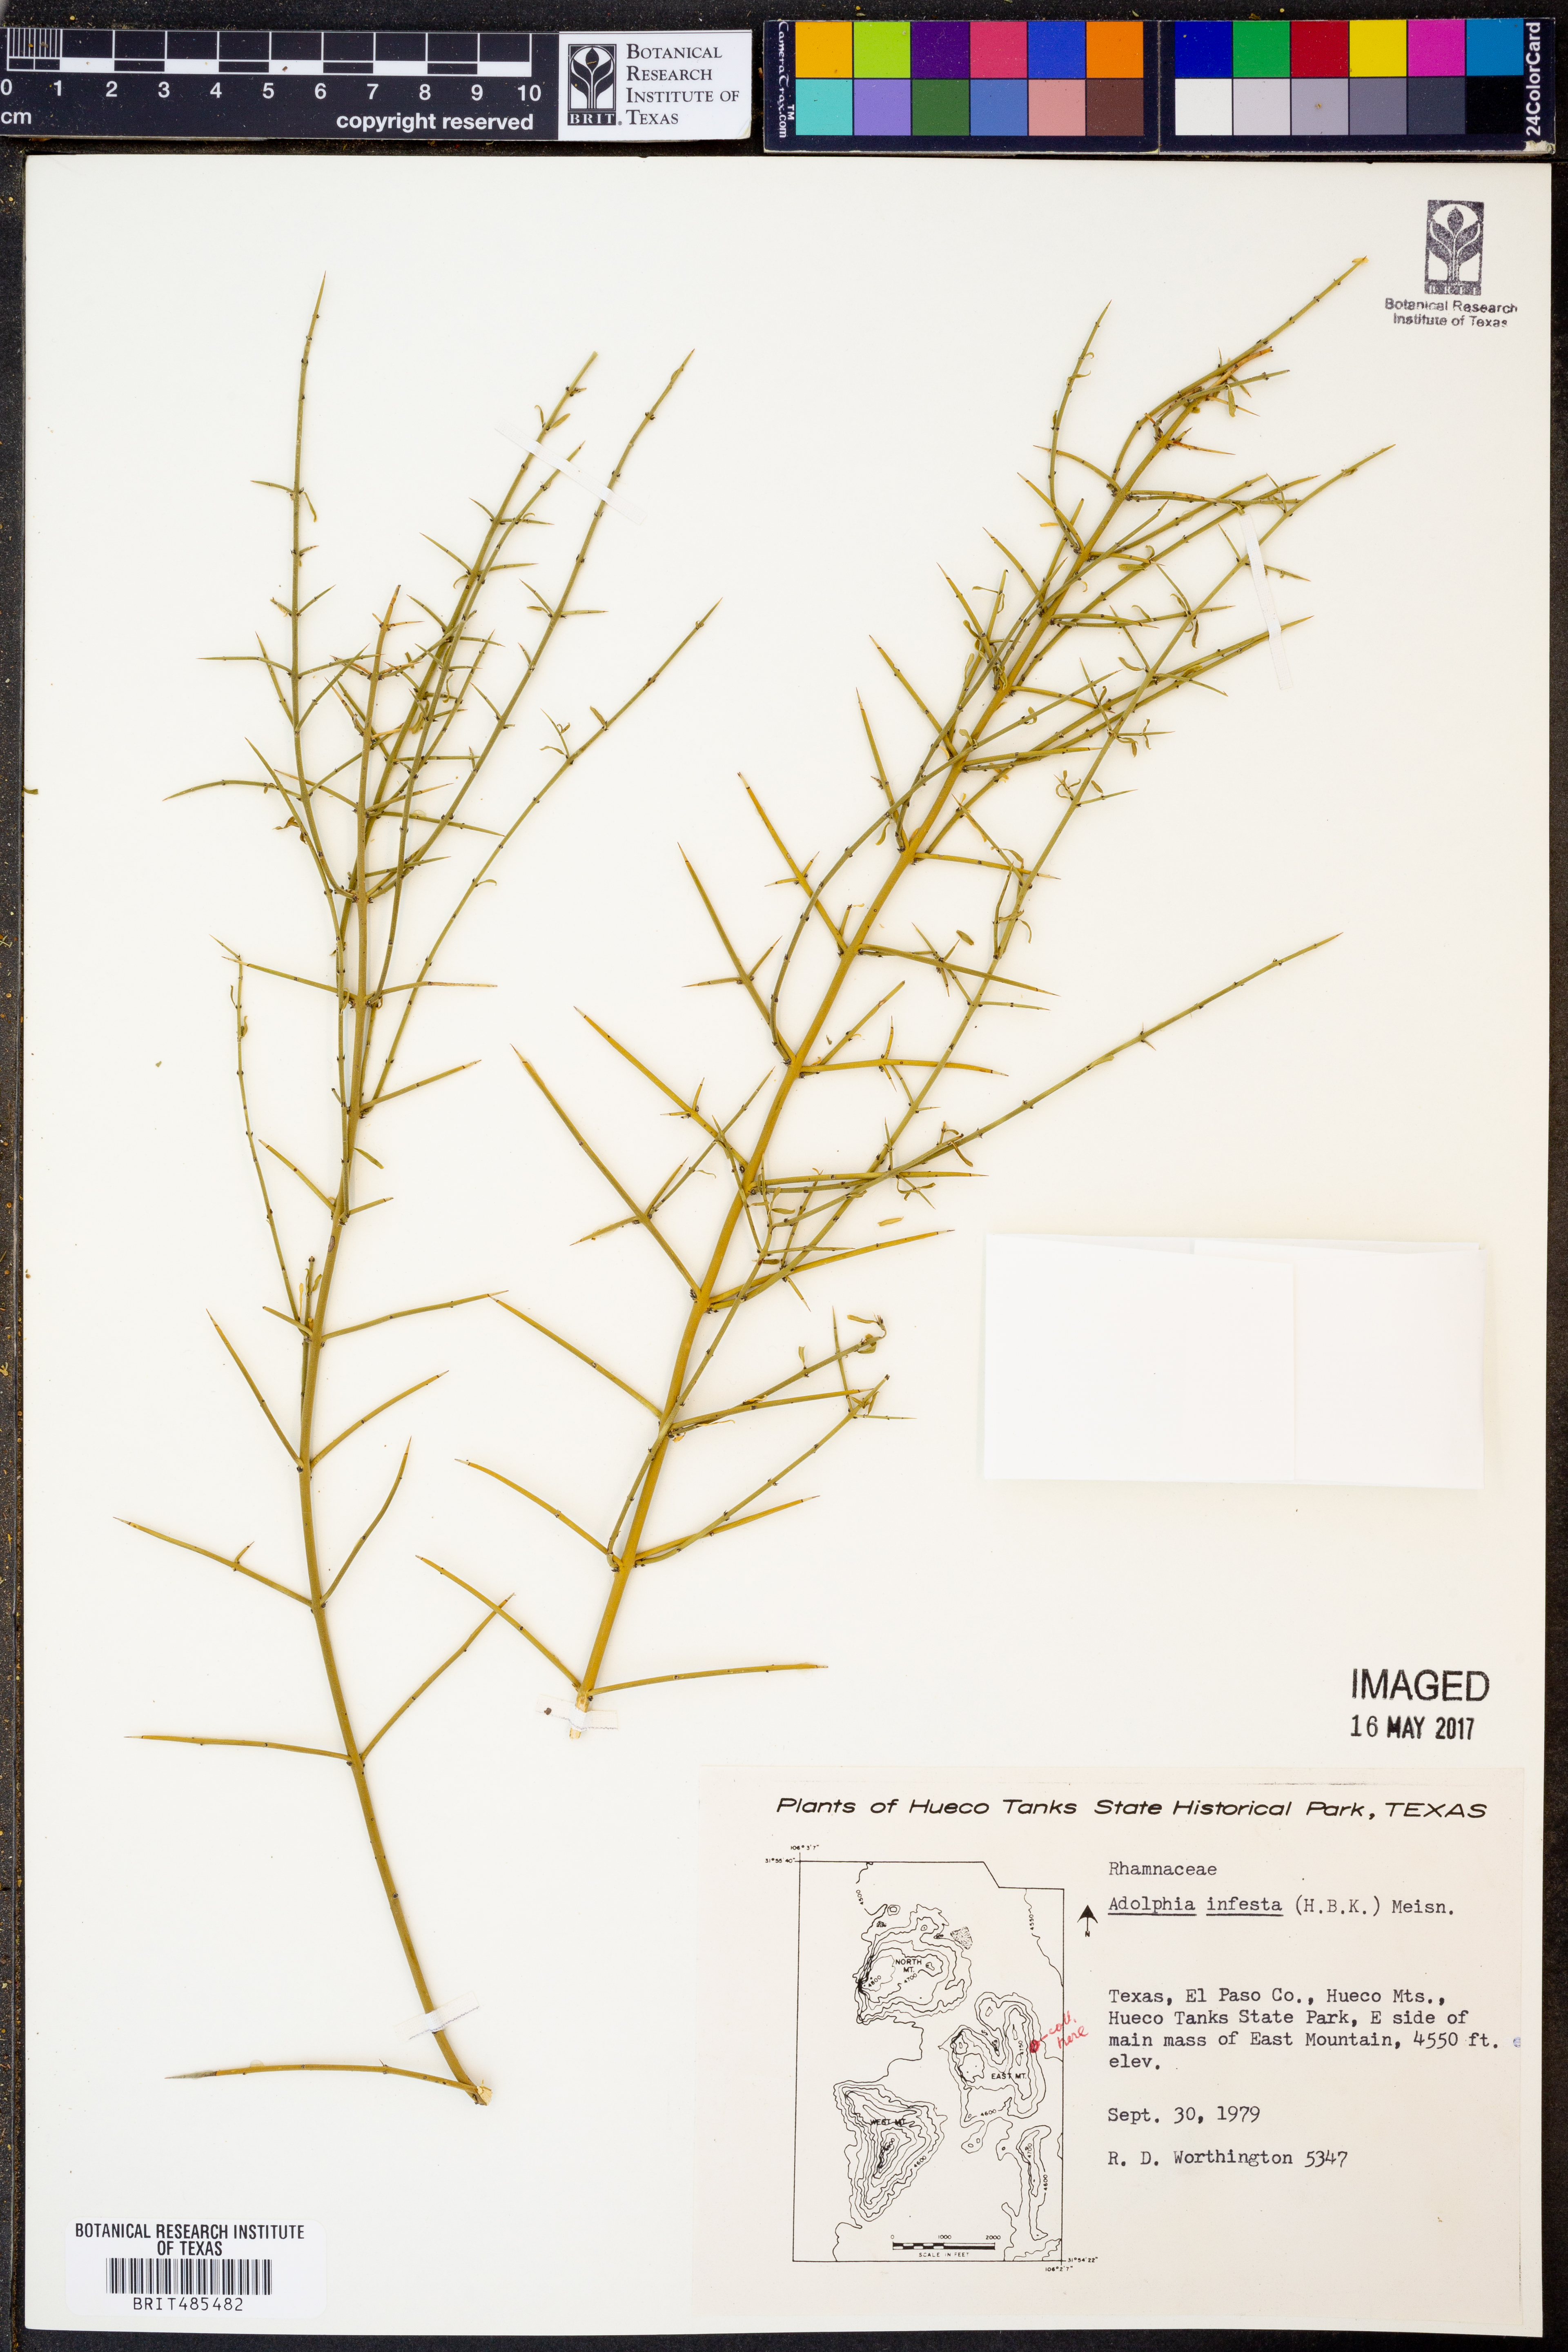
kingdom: Plantae
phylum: Tracheophyta
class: Magnoliopsida
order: Rosales
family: Rhamnaceae
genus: Adolphia
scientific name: Adolphia infesta
